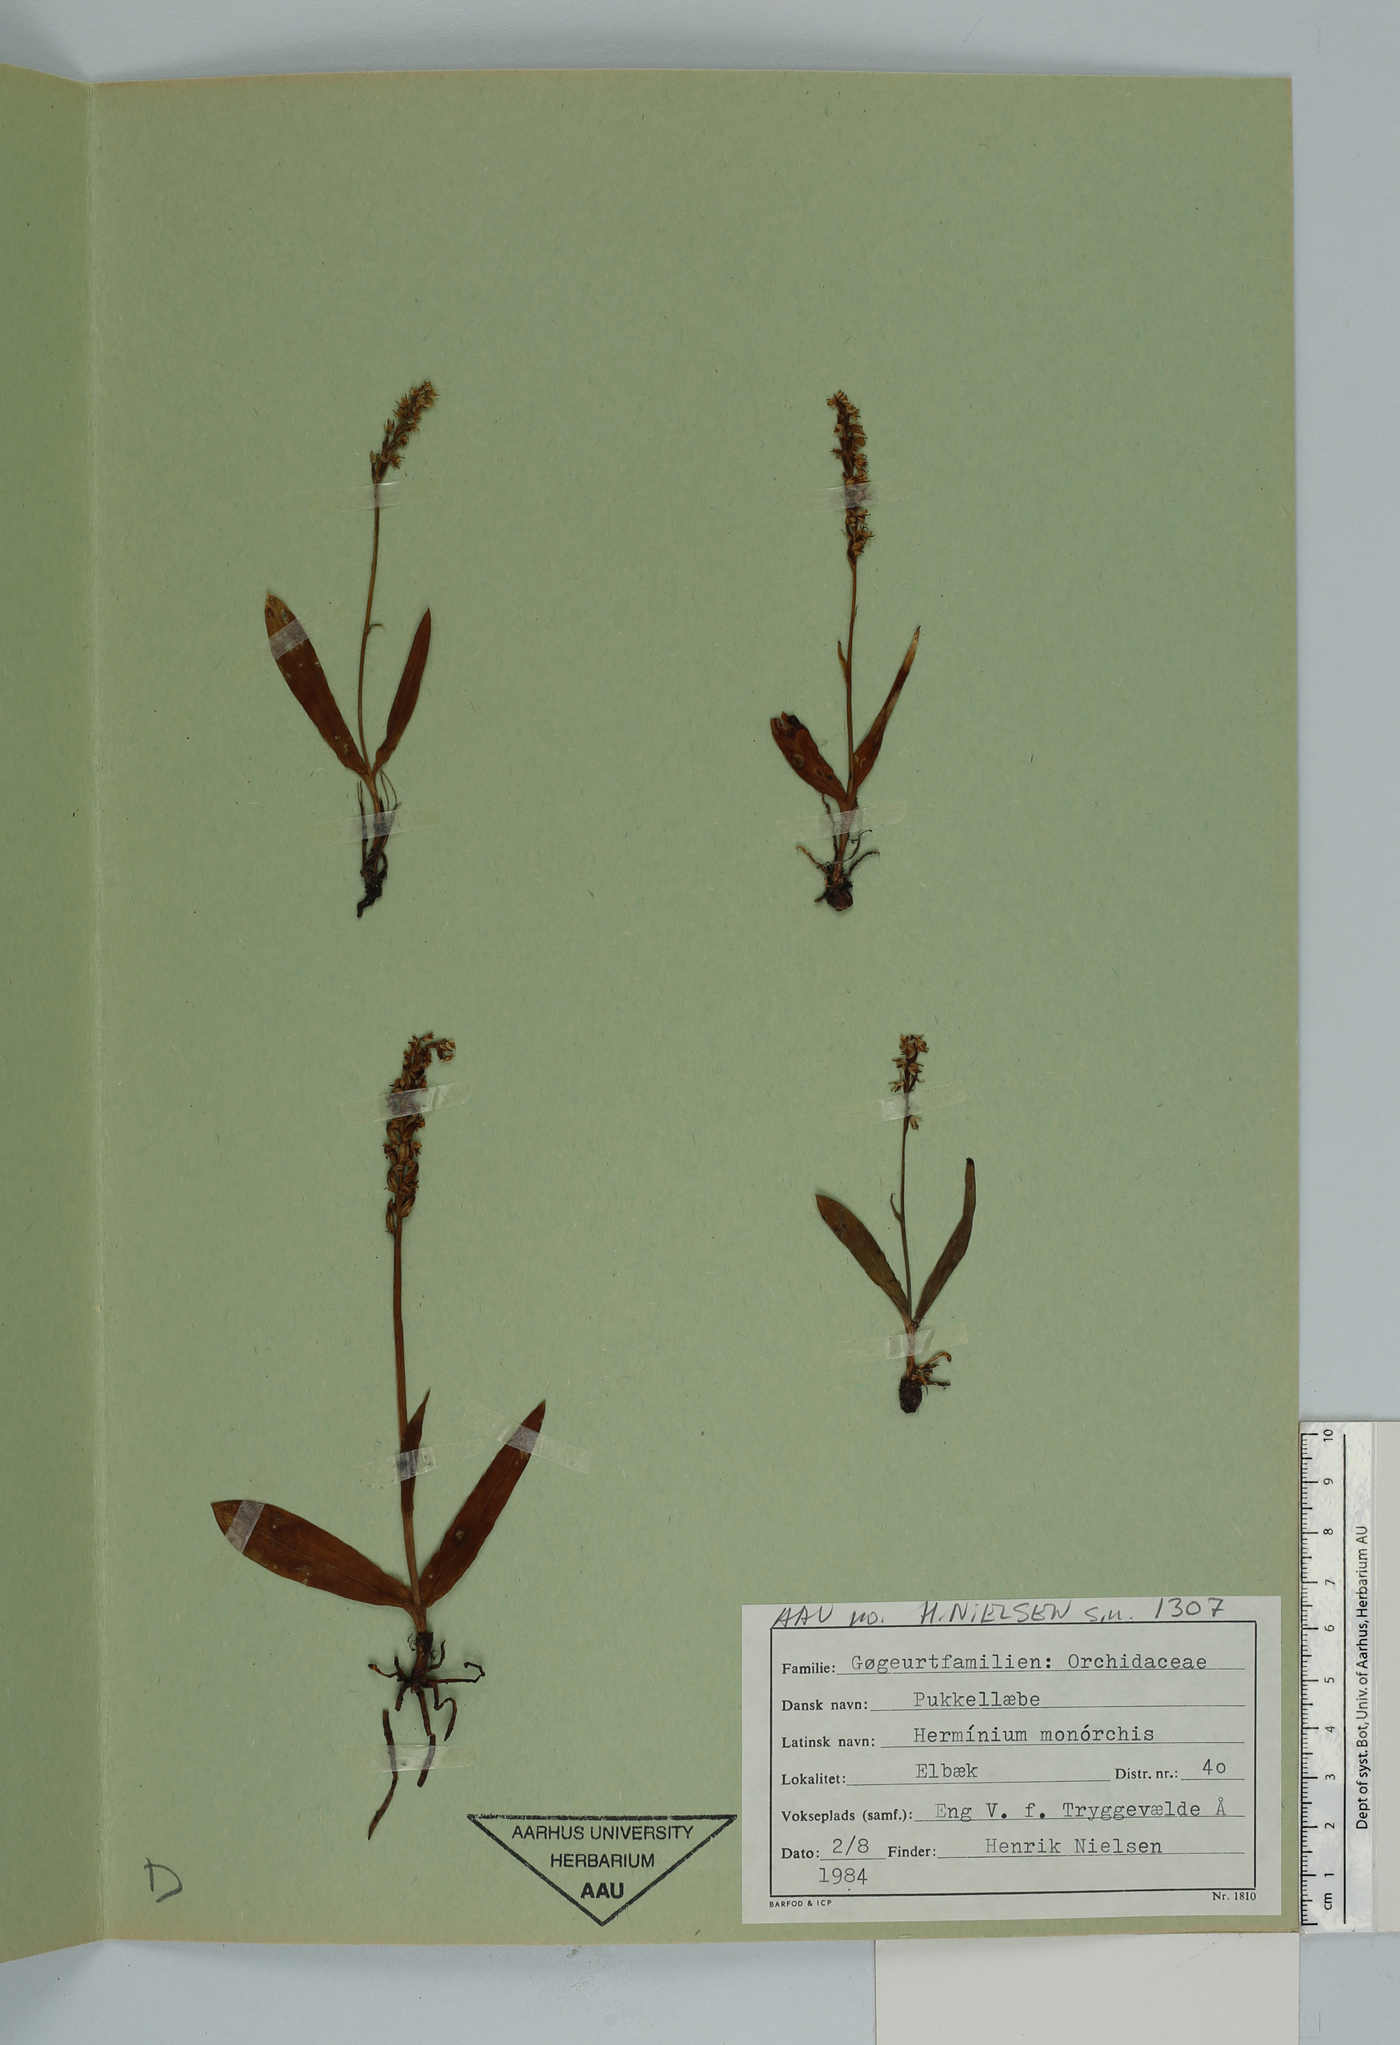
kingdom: Plantae
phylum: Tracheophyta
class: Liliopsida
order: Asparagales
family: Orchidaceae
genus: Herminium
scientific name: Herminium monorchis
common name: Musk orchid
